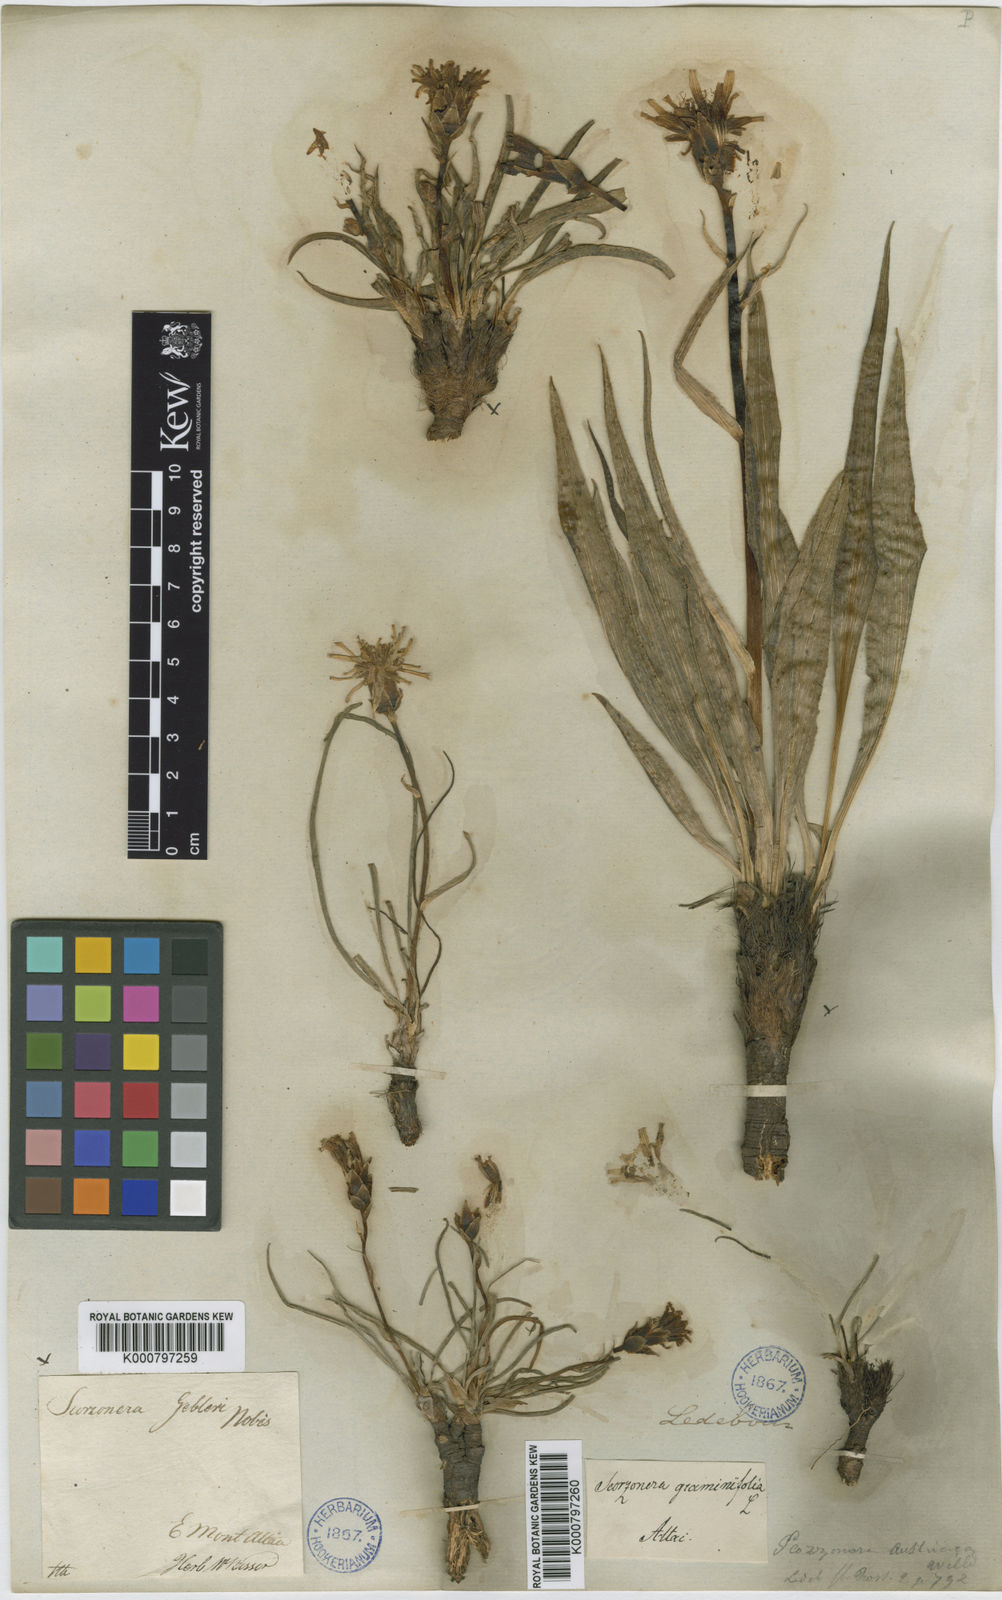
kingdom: Plantae
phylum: Tracheophyta
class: Magnoliopsida
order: Asterales
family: Asteraceae
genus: Takhtajaniantha
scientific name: Takhtajaniantha austriaca
